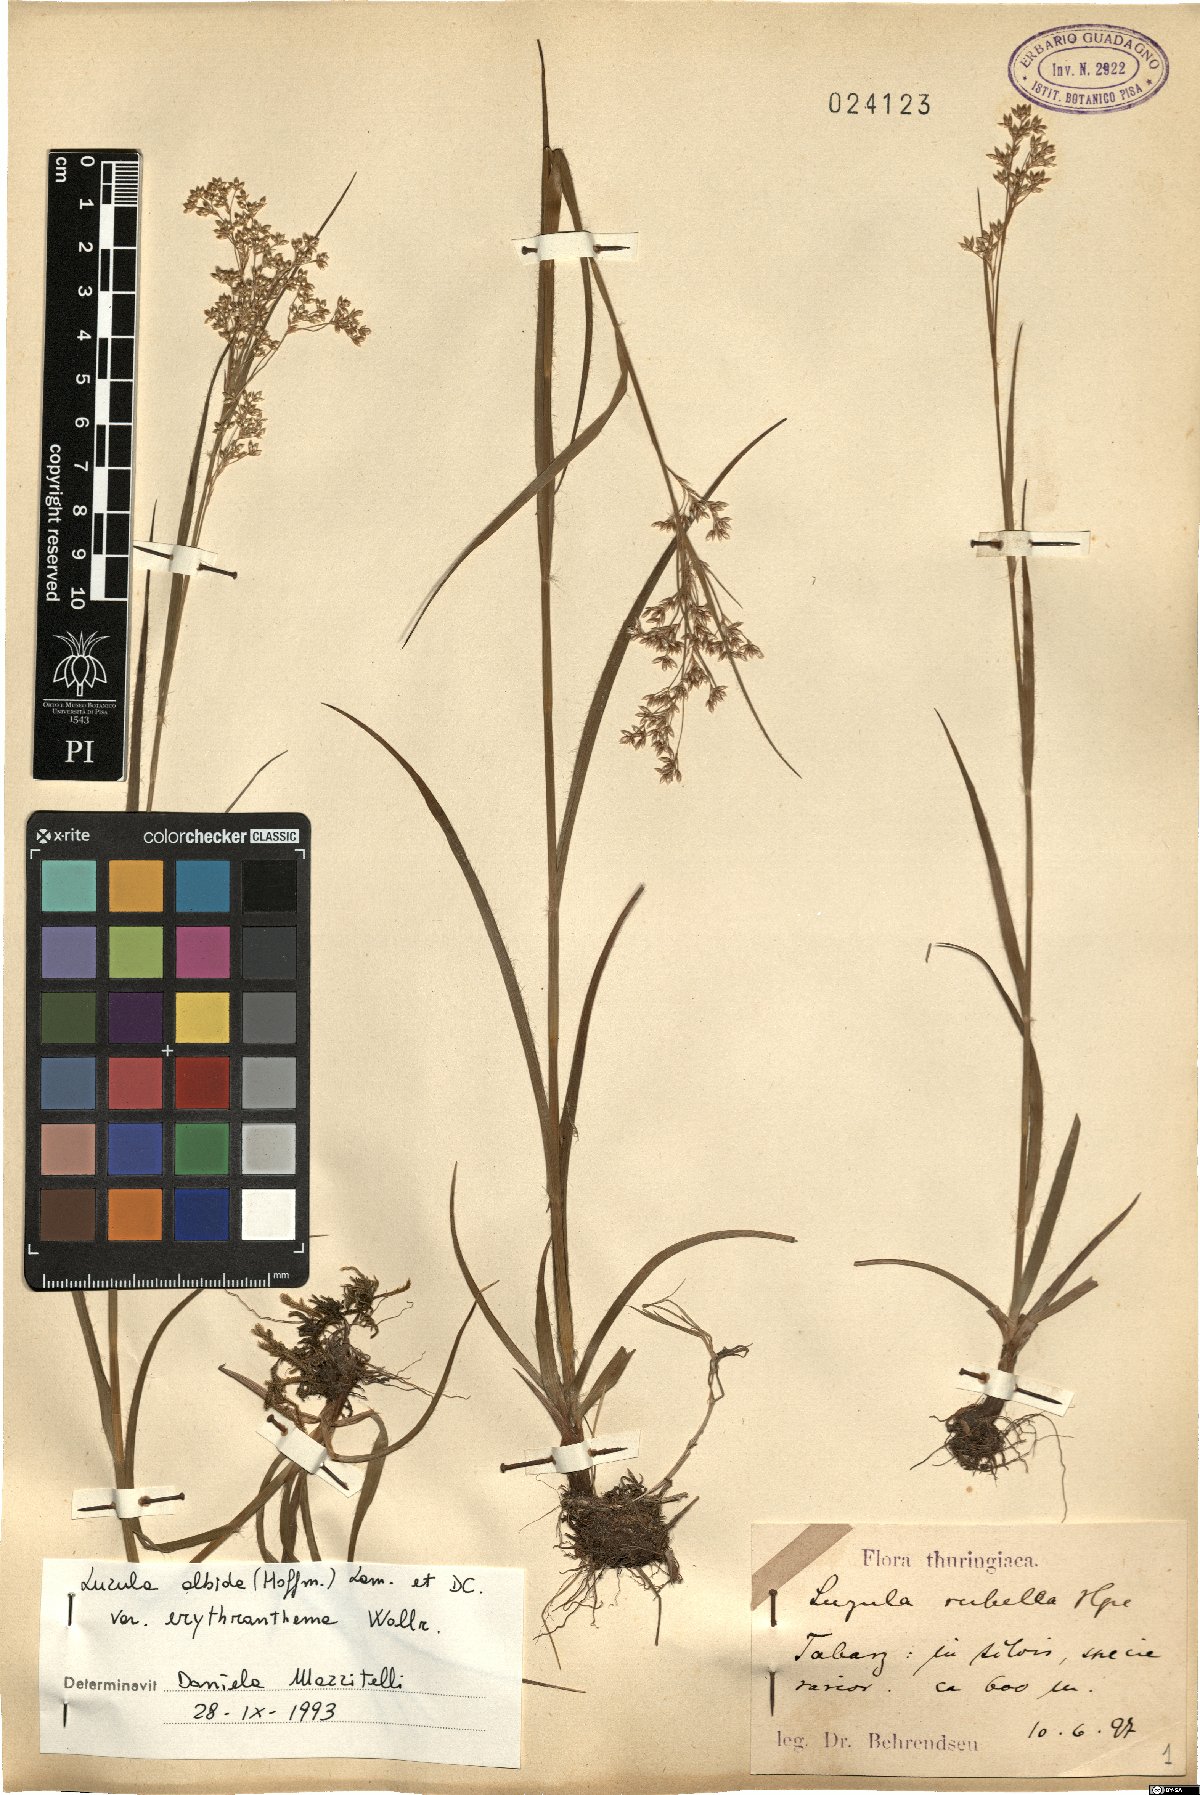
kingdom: Plantae
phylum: Tracheophyta
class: Liliopsida
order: Poales
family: Juncaceae
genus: Luzula
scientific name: Luzula luzuloides
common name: White wood-rush
